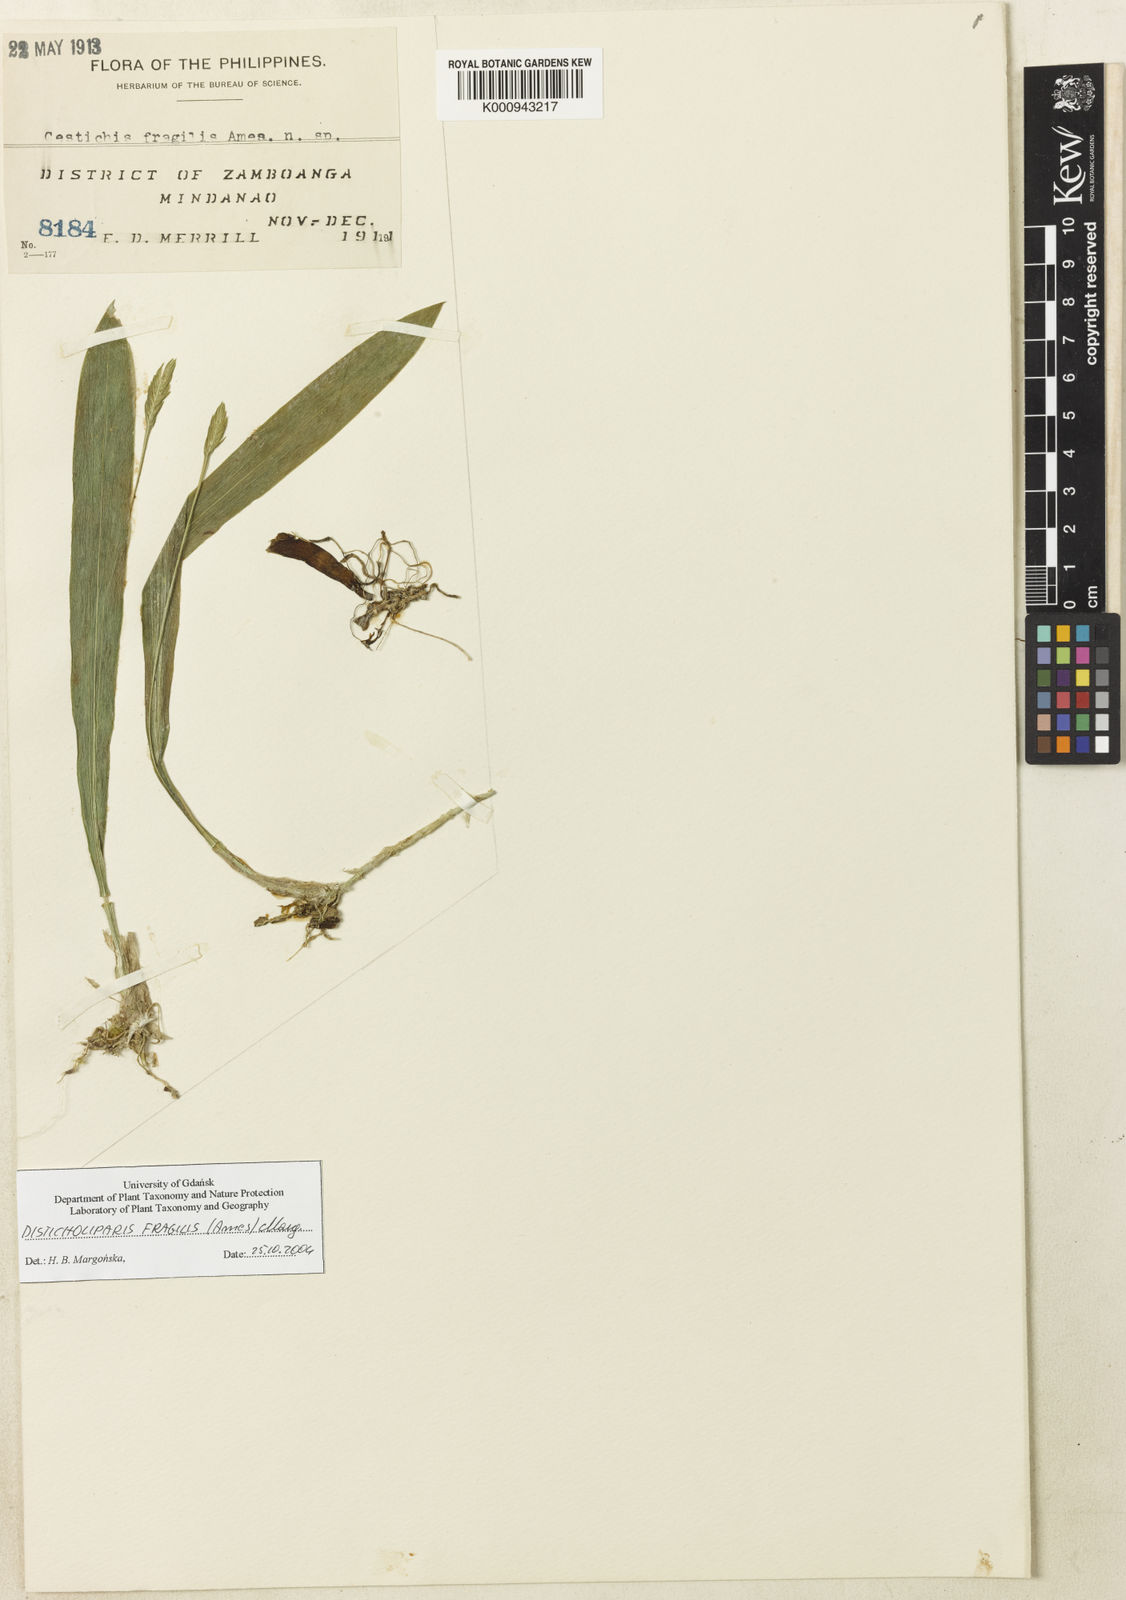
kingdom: Plantae
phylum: Tracheophyta
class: Liliopsida
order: Asparagales
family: Orchidaceae
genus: Stichorkis
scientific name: Stichorkis fragilis
